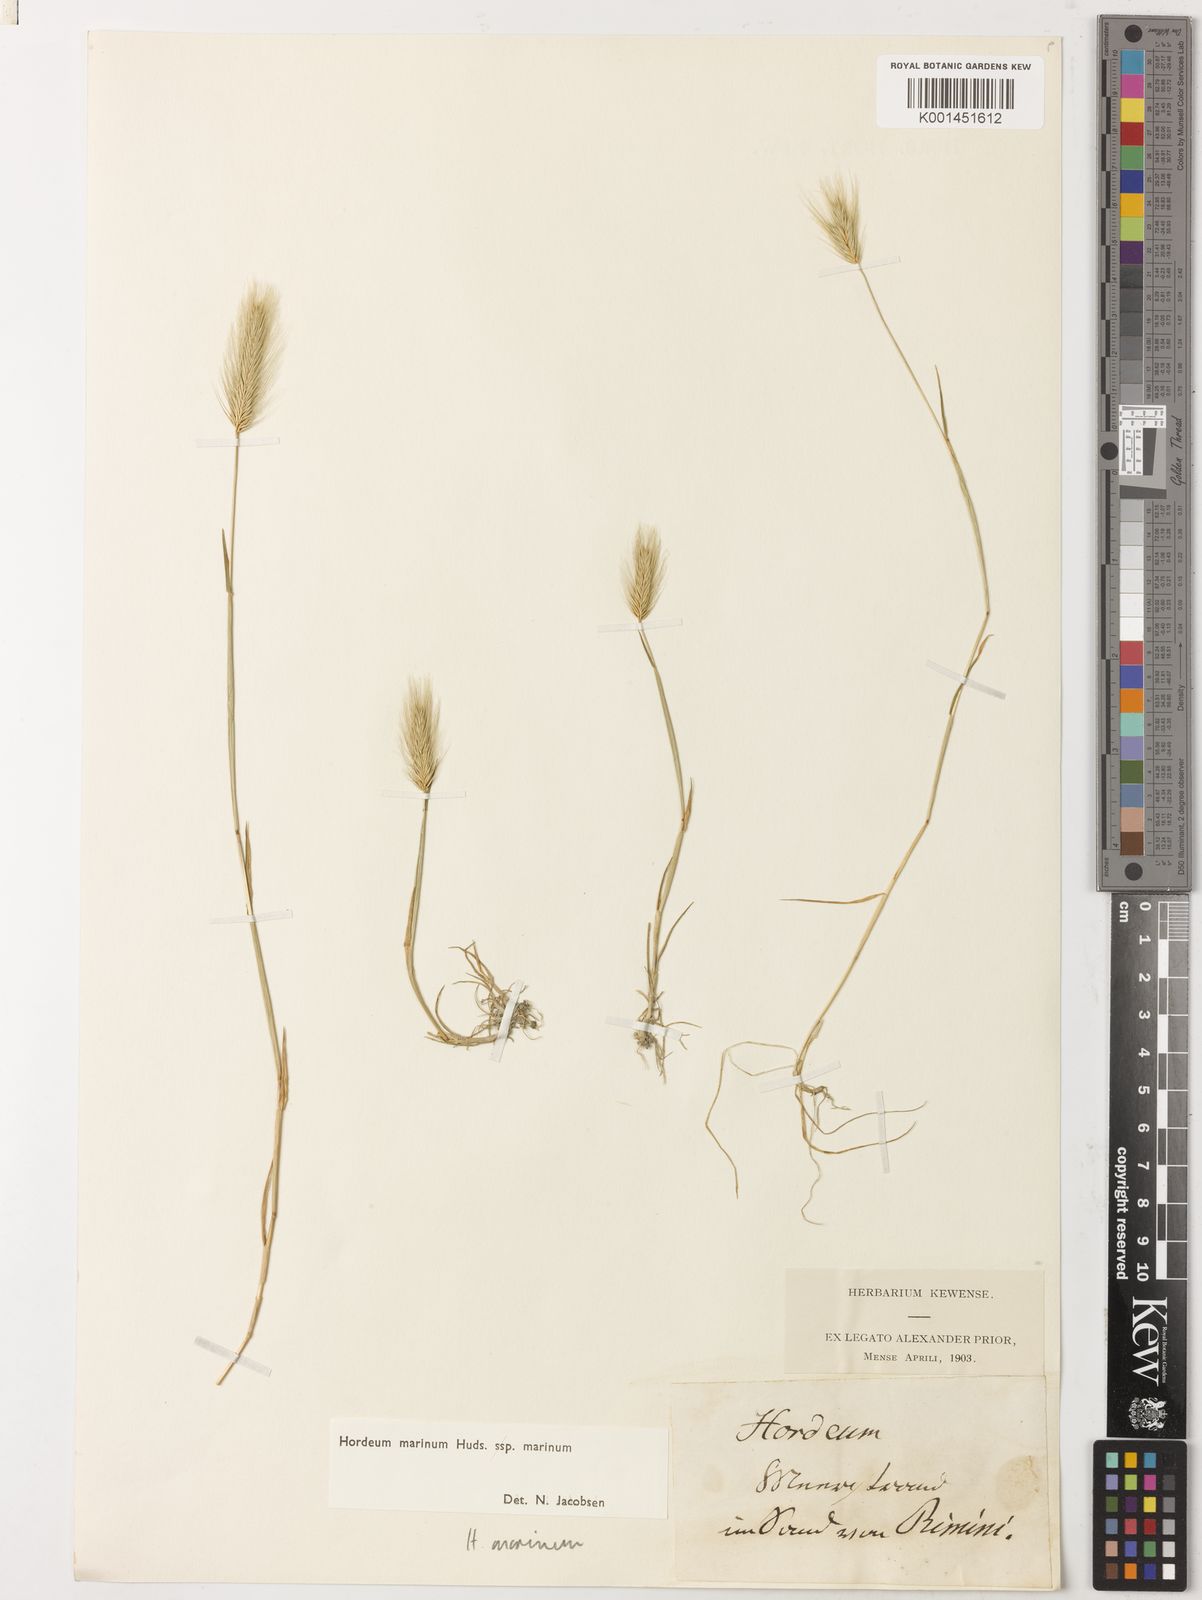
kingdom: Plantae
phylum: Tracheophyta
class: Liliopsida
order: Poales
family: Poaceae
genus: Hordeum
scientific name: Hordeum marinum
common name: Sea barley
